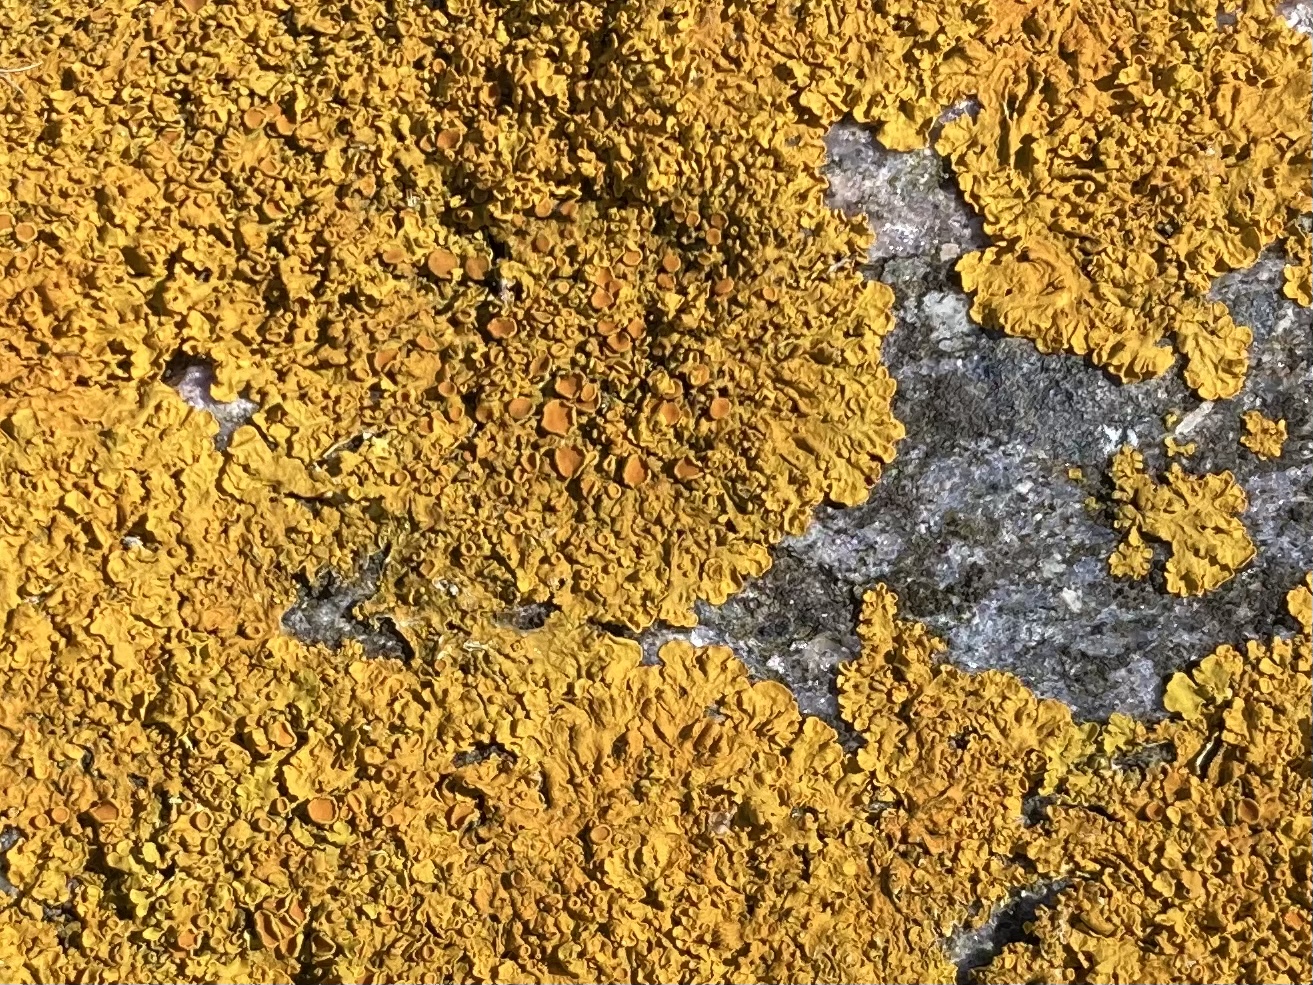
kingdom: Fungi
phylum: Ascomycota
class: Lecanoromycetes
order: Teloschistales
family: Teloschistaceae
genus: Xanthoria
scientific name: Xanthoria parietina
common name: almindelig væggelav
